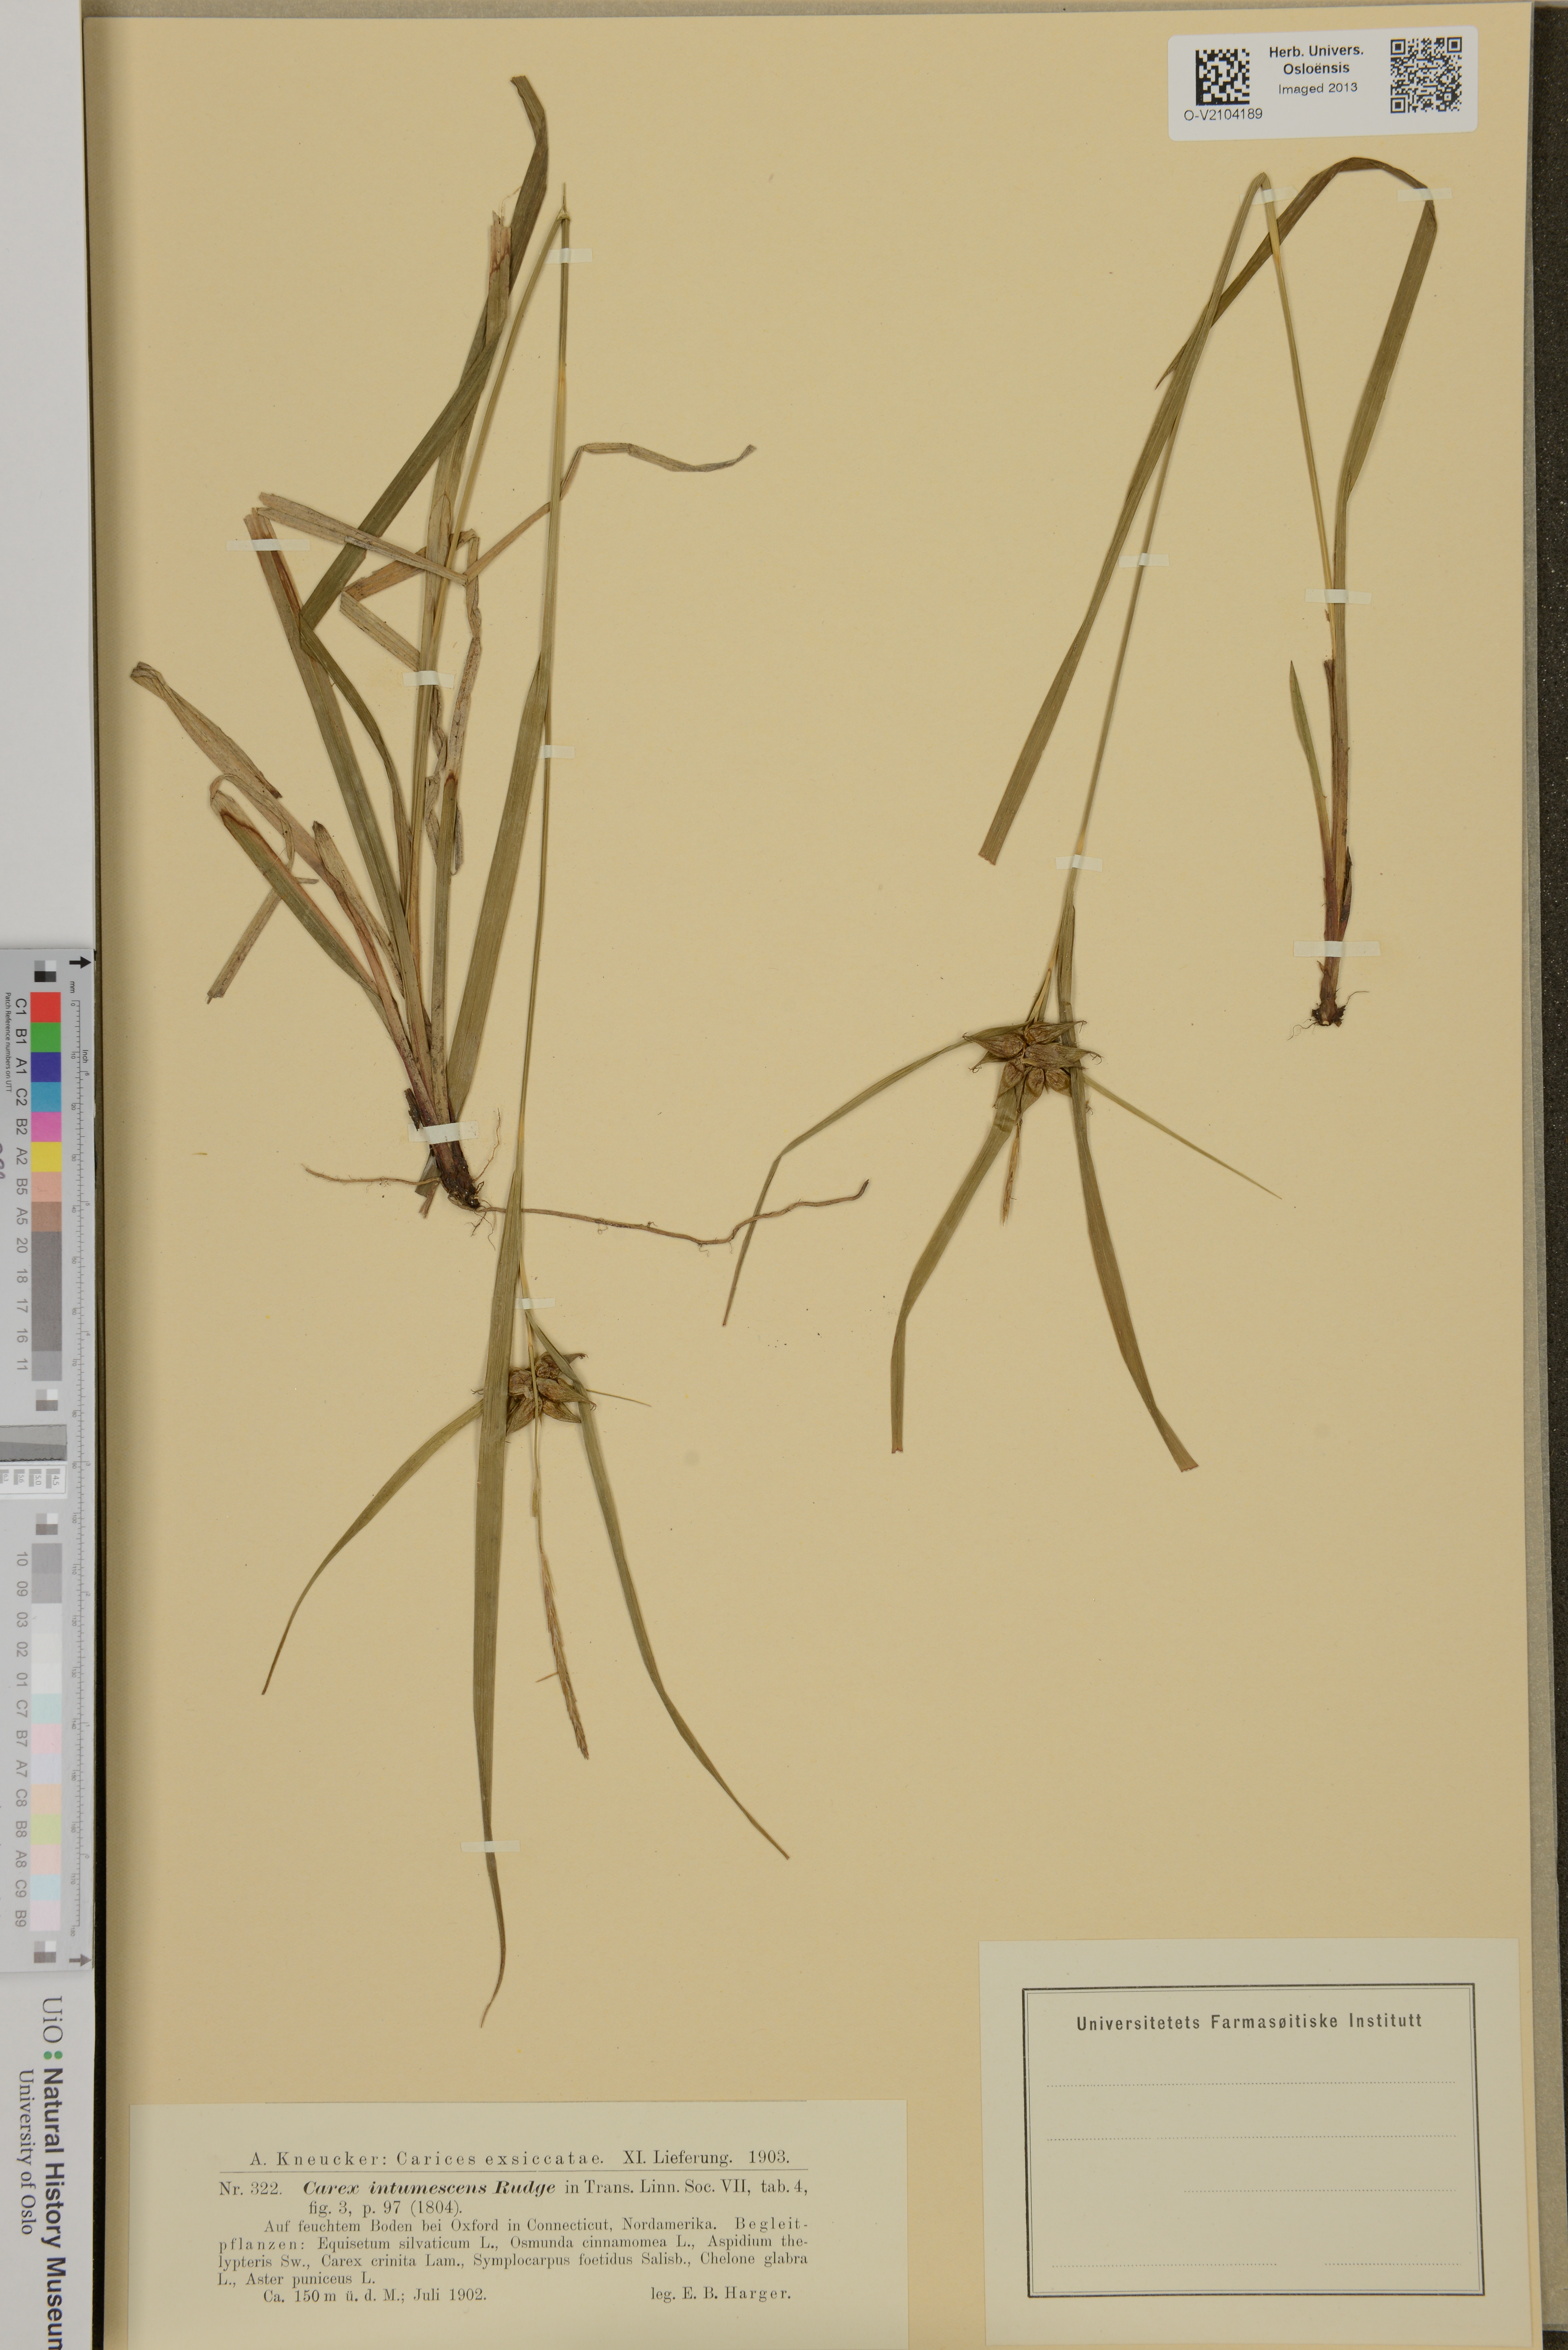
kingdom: Plantae
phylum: Tracheophyta
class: Liliopsida
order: Poales
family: Cyperaceae
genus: Carex
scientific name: Carex intumescens
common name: Greater bladder sedge
